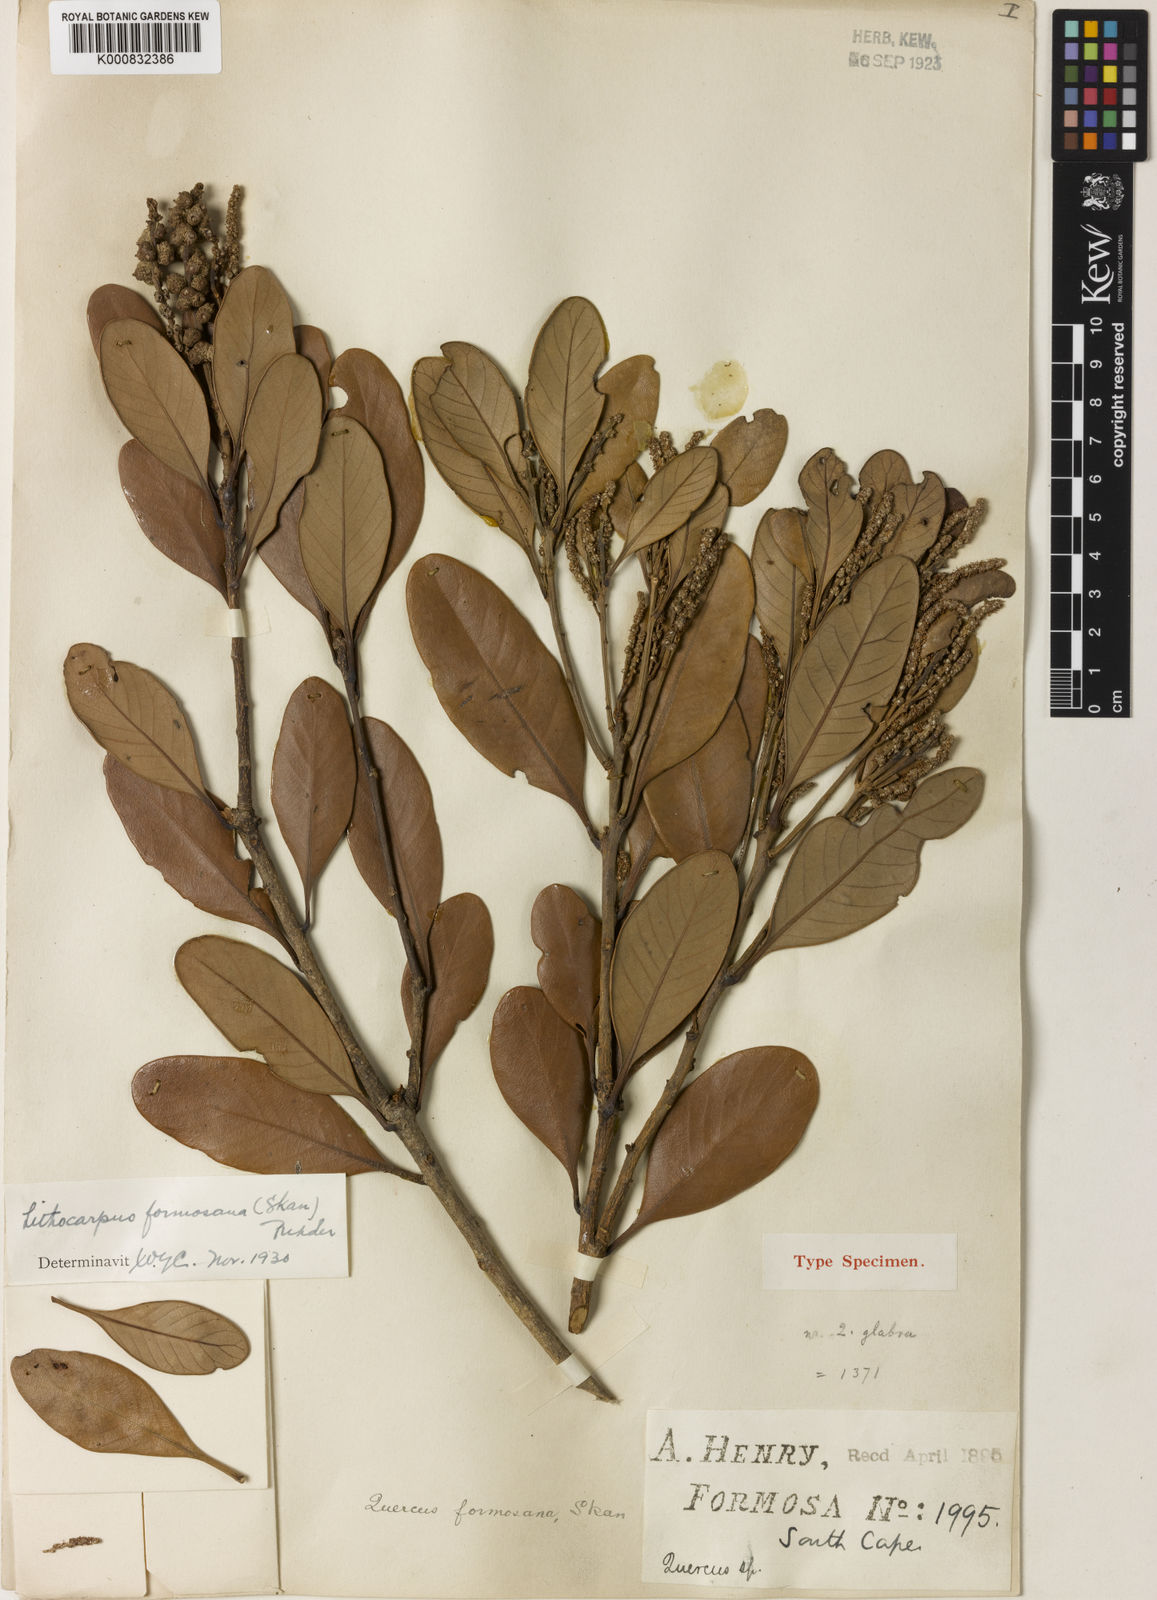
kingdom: Plantae
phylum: Tracheophyta
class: Magnoliopsida
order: Fagales
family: Fagaceae
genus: Lithocarpus
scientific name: Lithocarpus formosanus
